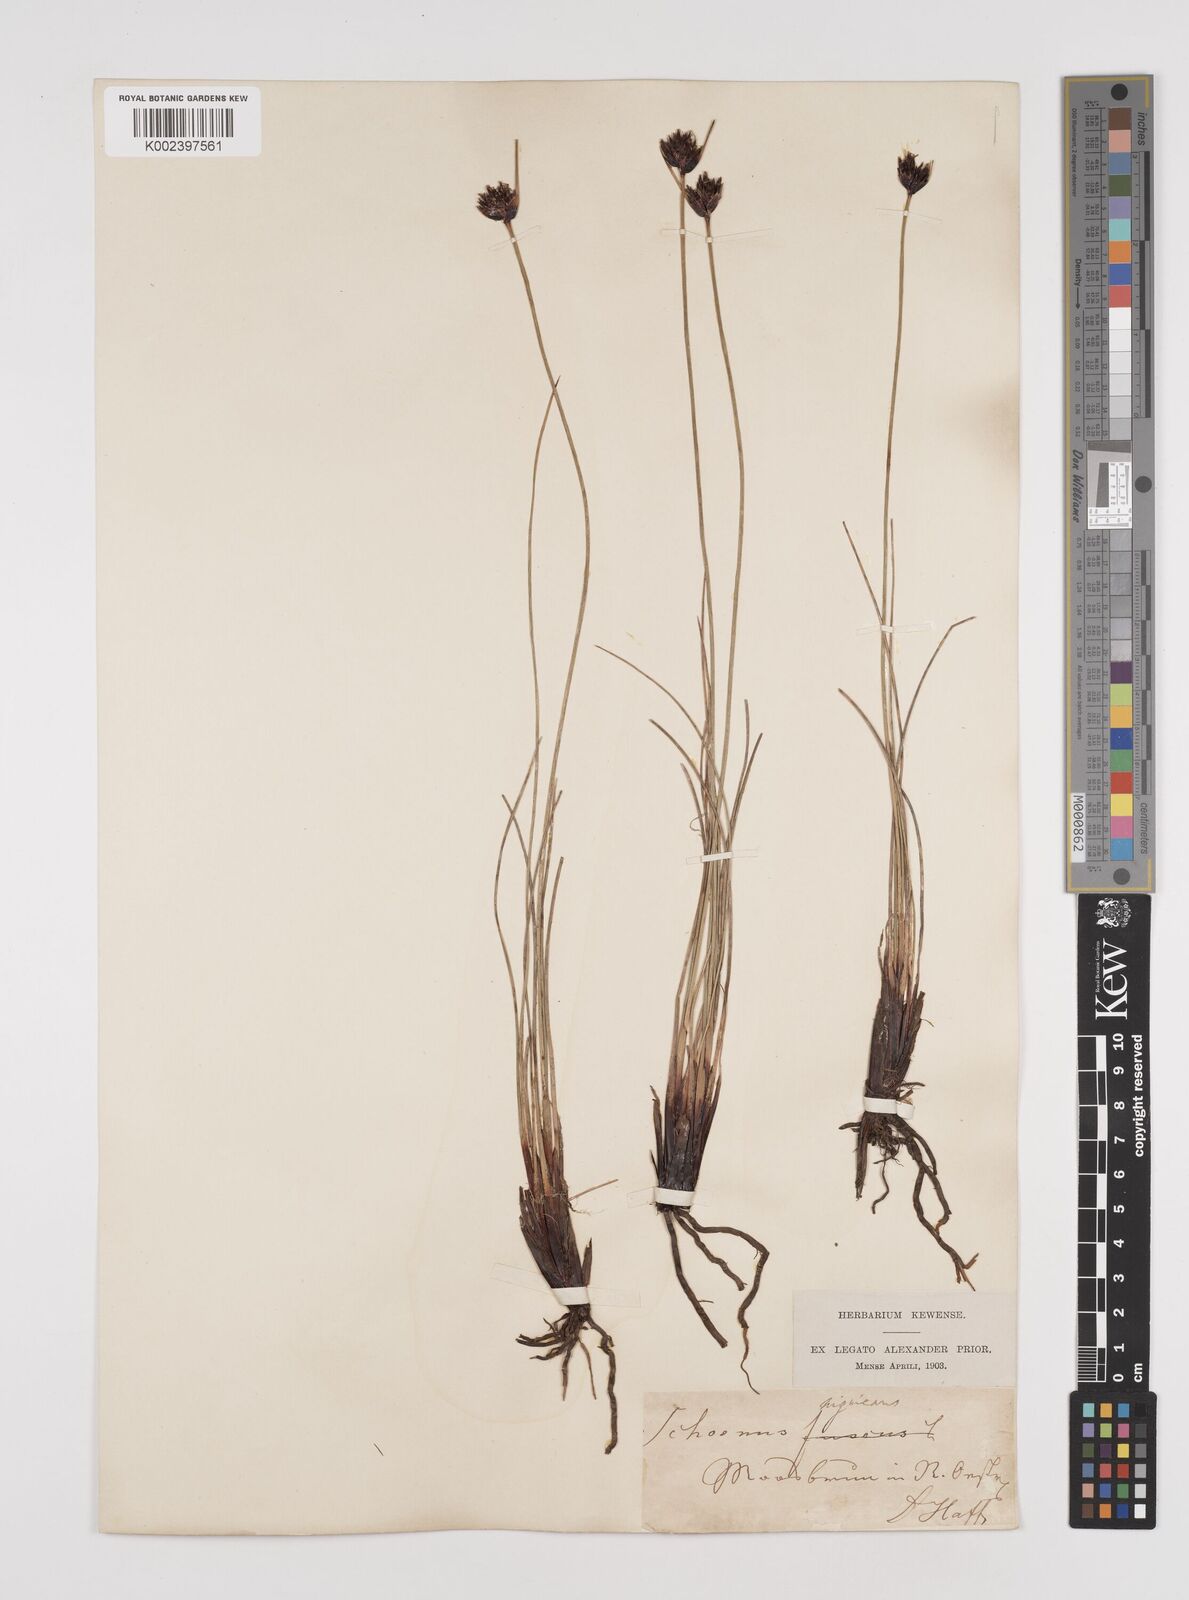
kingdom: Plantae
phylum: Tracheophyta
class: Liliopsida
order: Poales
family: Cyperaceae
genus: Schoenus
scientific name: Schoenus nigricans
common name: Black bog-rush
